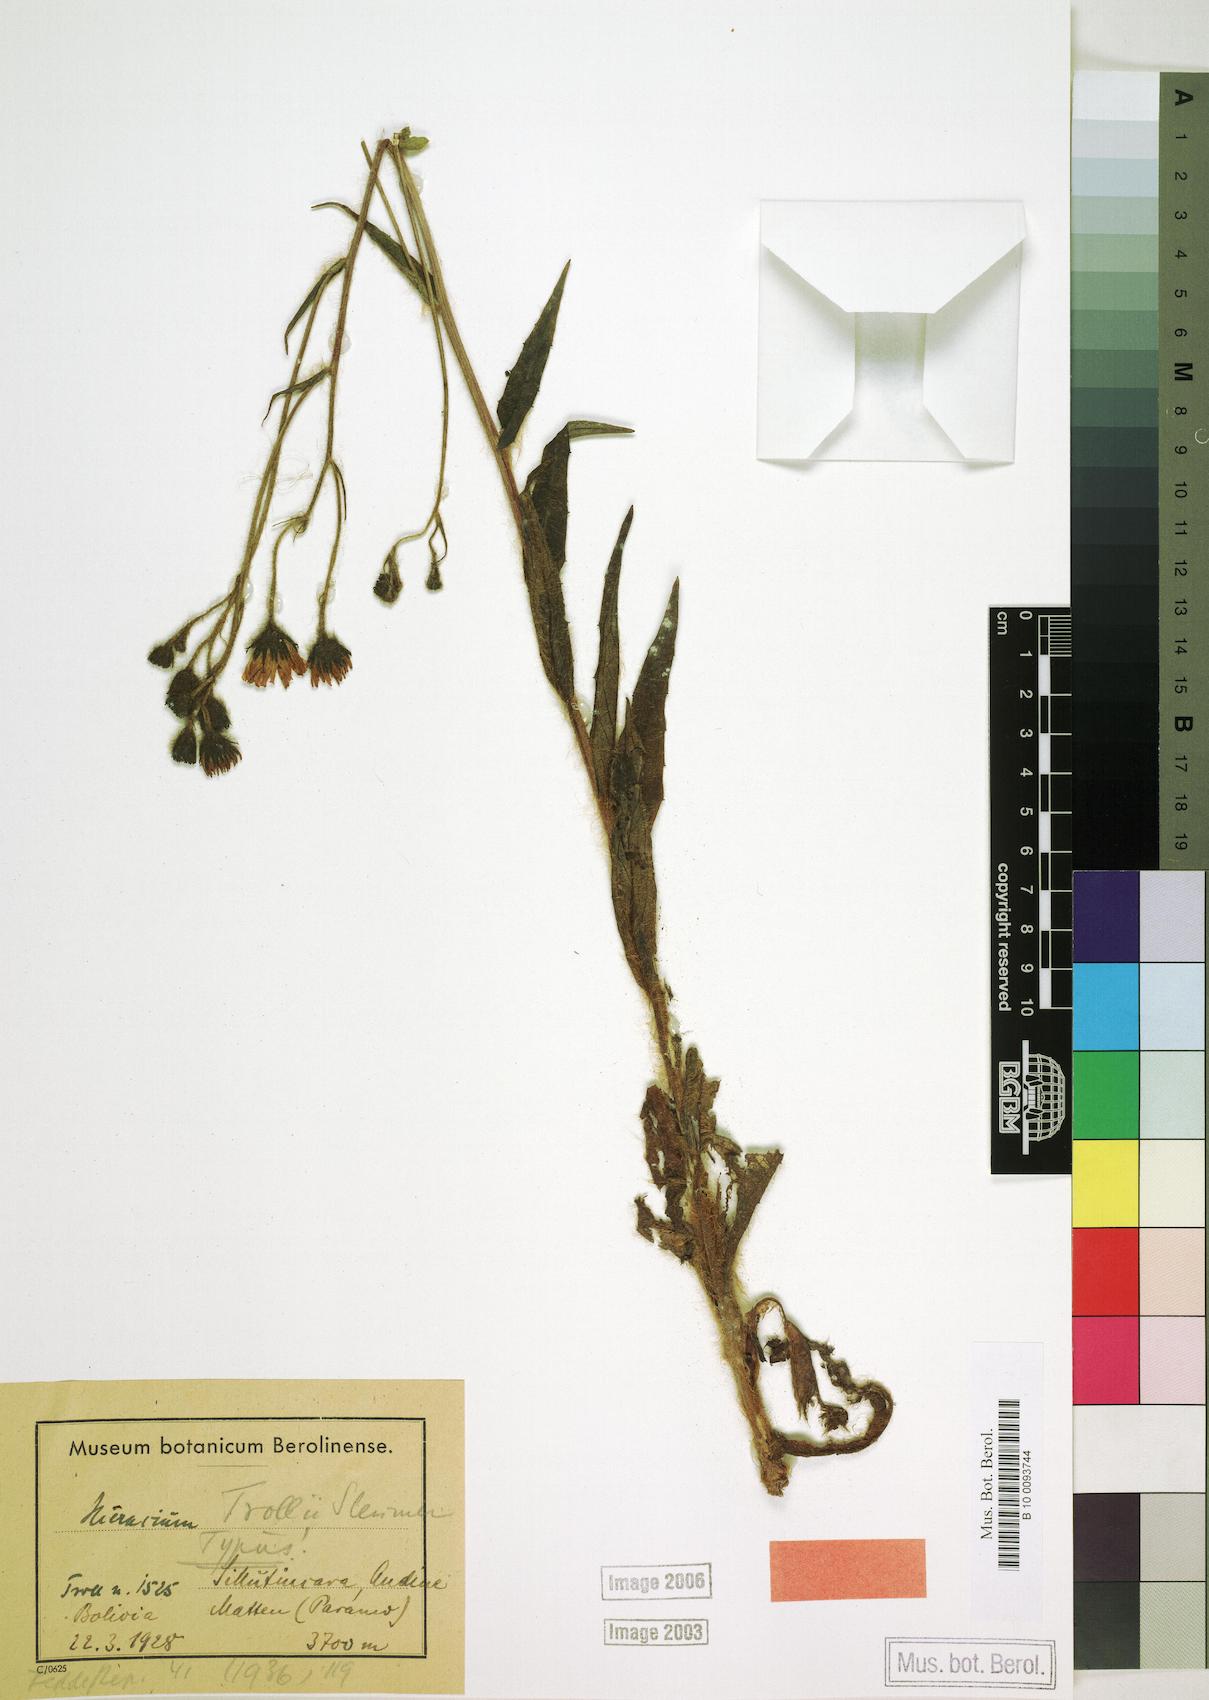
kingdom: Plantae
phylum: Tracheophyta
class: Magnoliopsida
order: Asterales
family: Asteraceae
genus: Hieracium
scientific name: Hieracium tacense
